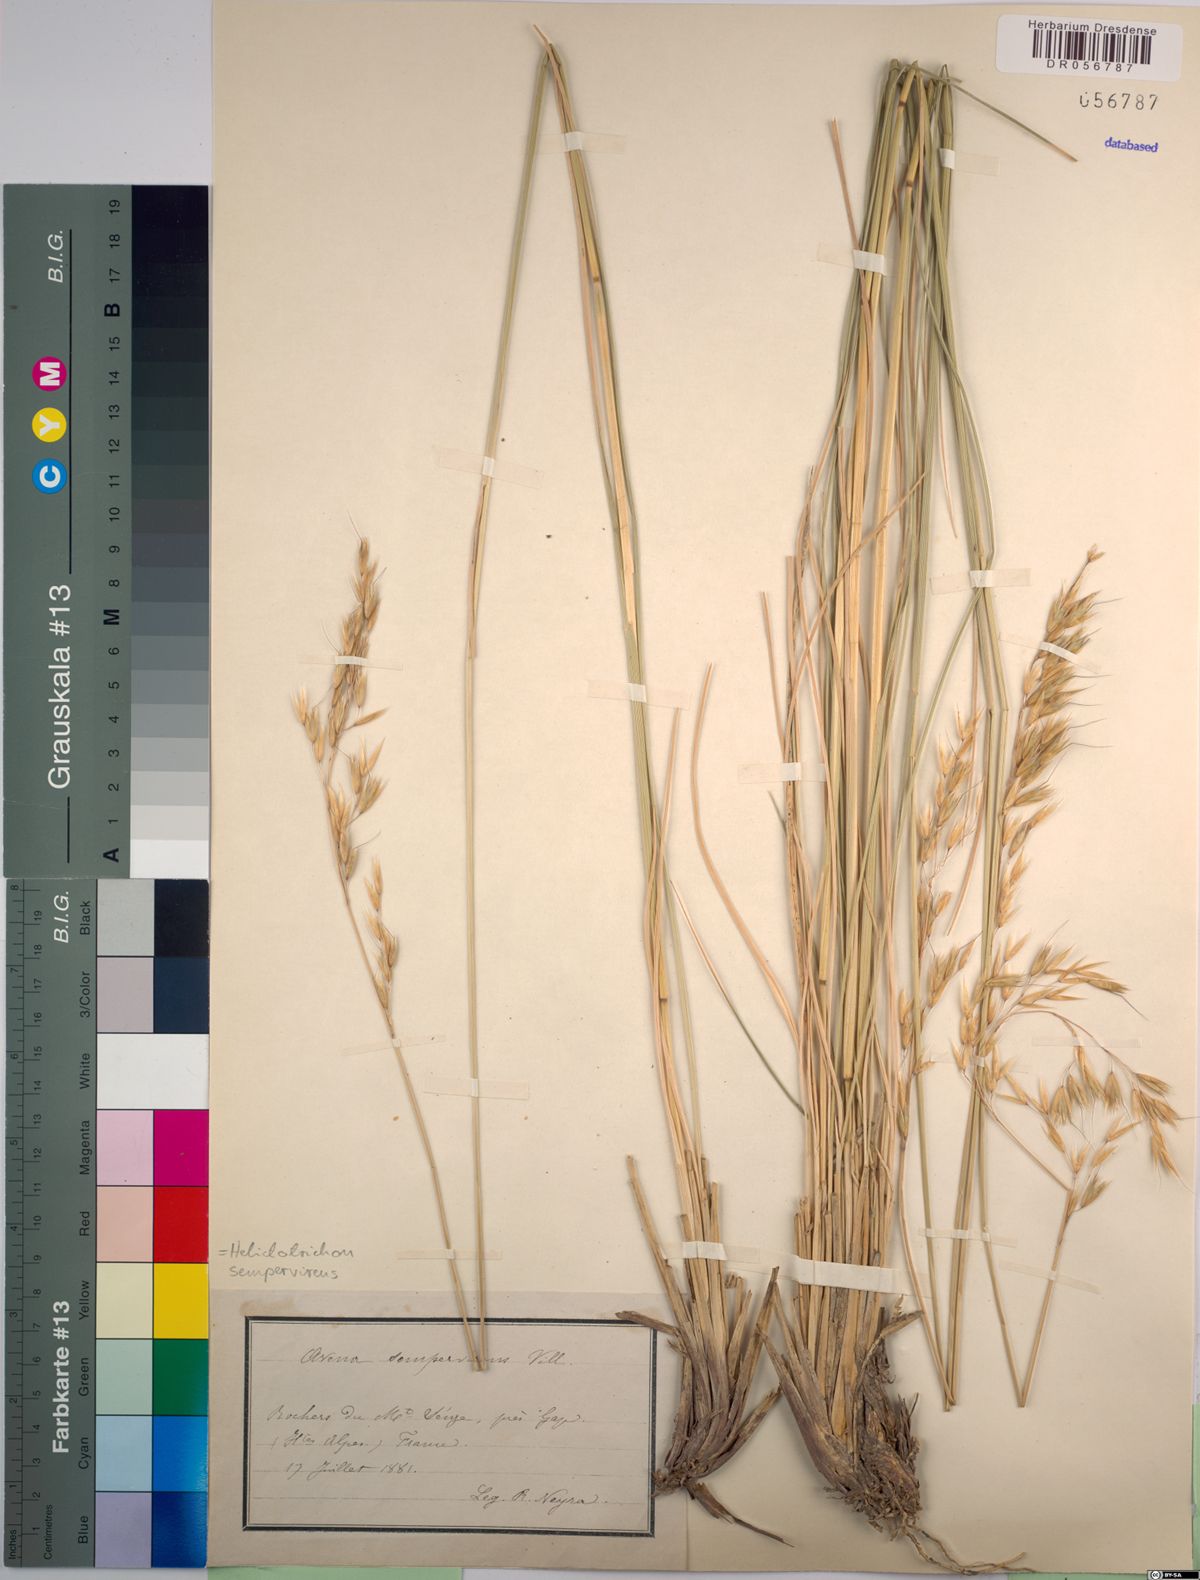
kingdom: Plantae
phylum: Tracheophyta
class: Liliopsida
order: Poales
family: Poaceae
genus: Helictotrichon
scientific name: Helictotrichon sempervirens
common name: Blue oat-grass
